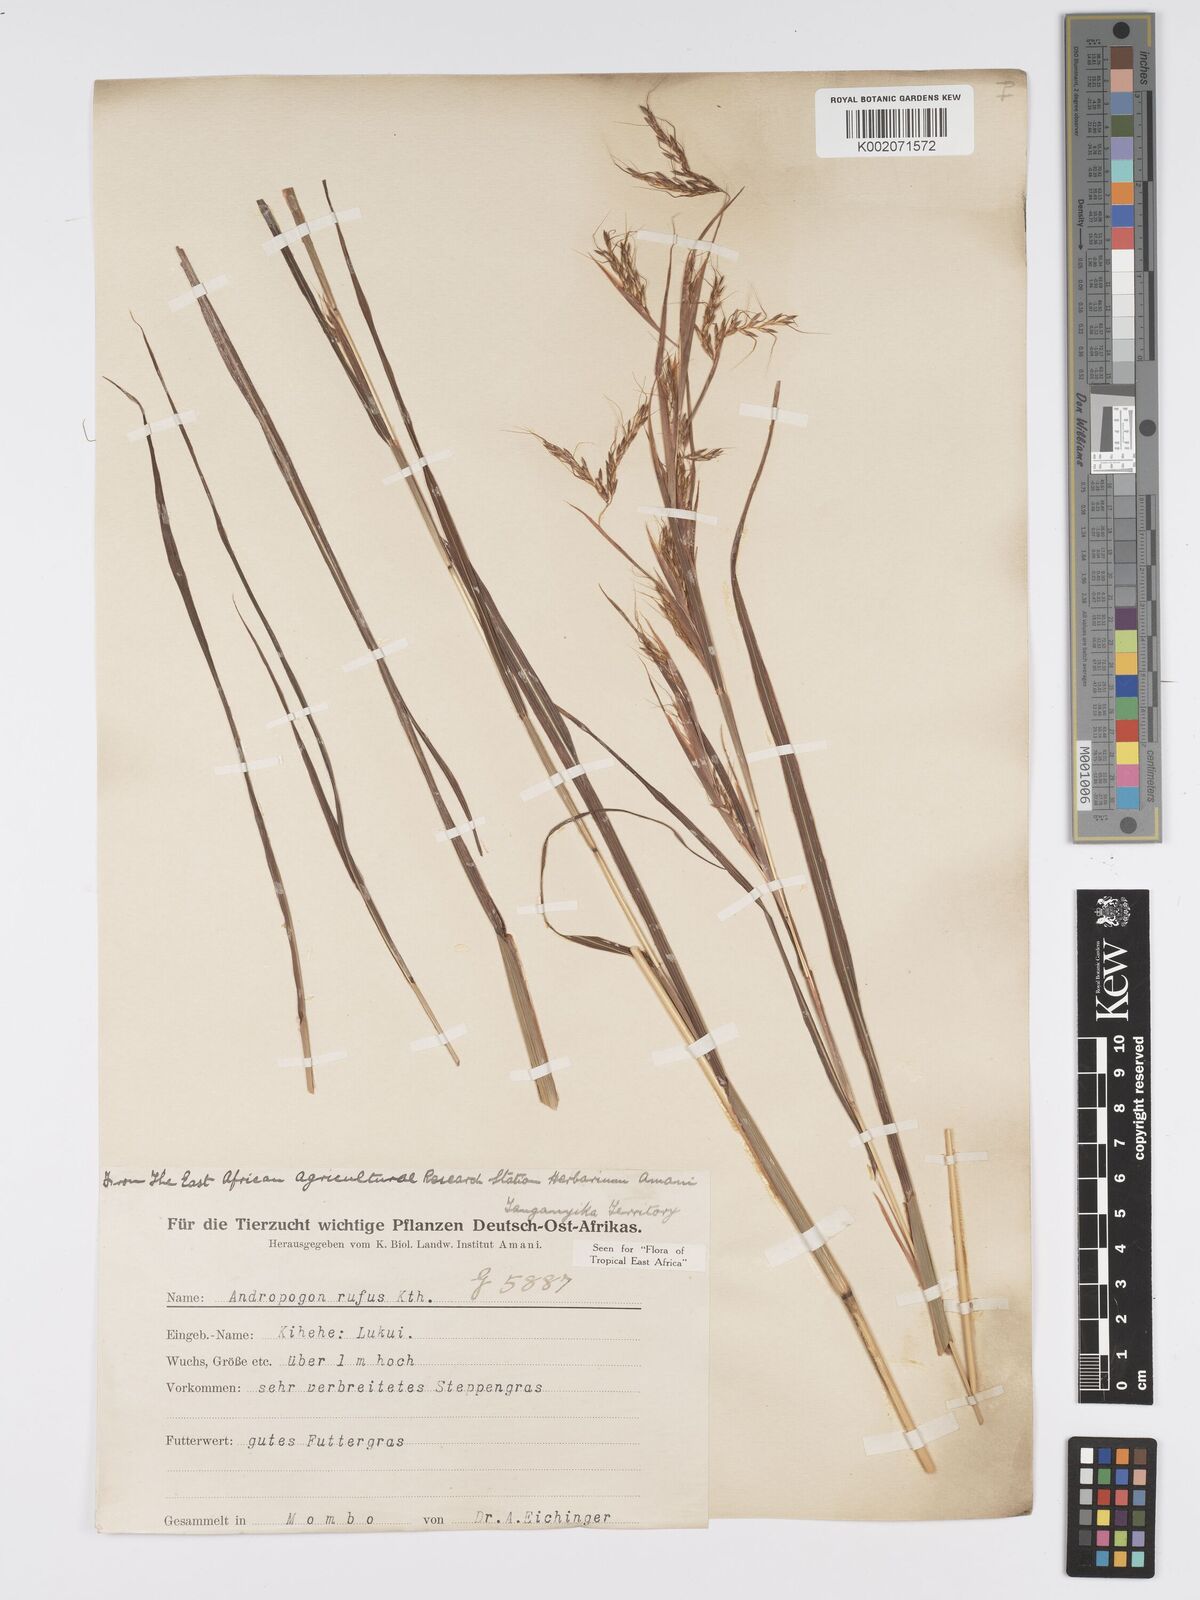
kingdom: Plantae
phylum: Tracheophyta
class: Liliopsida
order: Poales
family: Poaceae
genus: Hyparrhenia
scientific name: Hyparrhenia rufa
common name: Jaraguagrass
